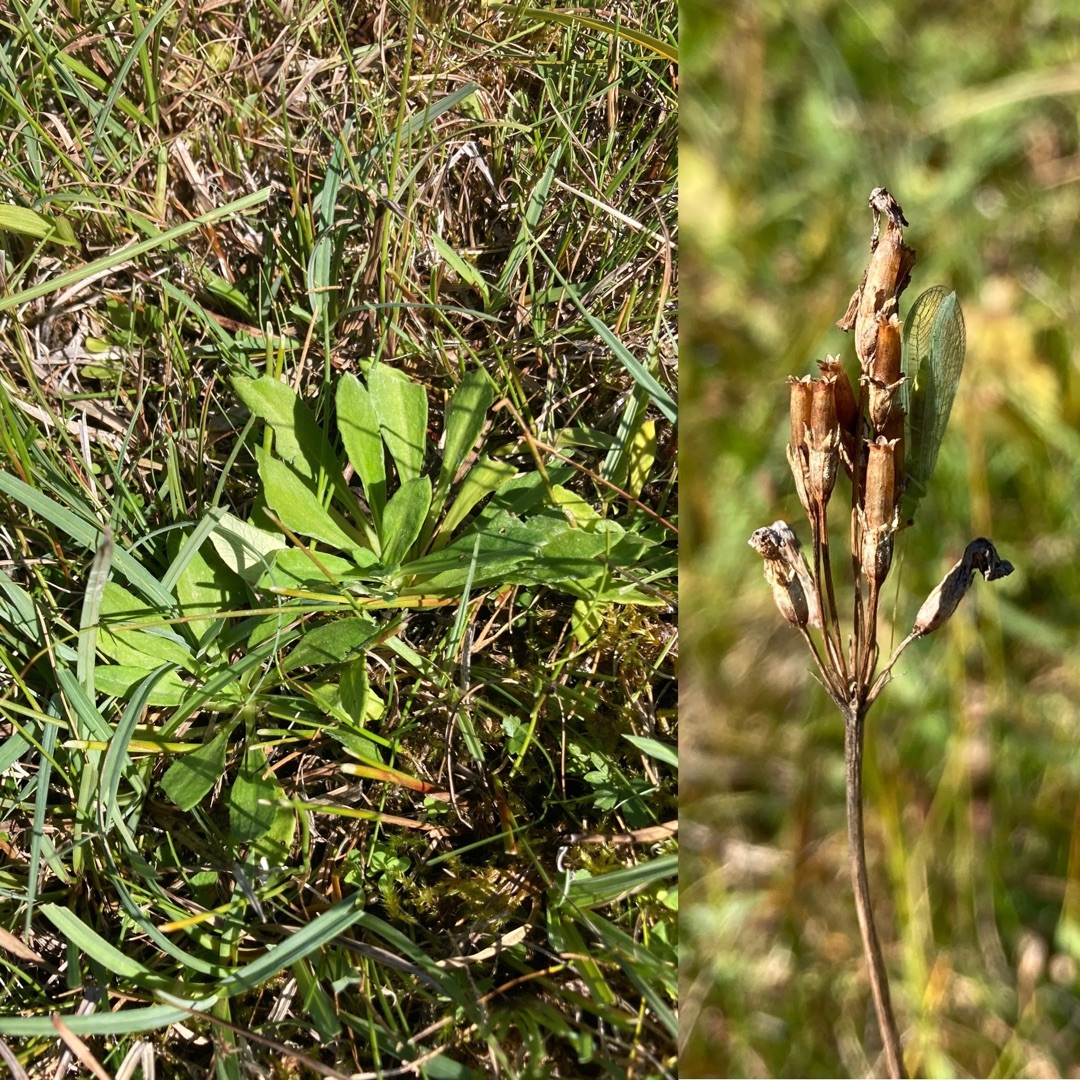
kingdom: Plantae
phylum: Tracheophyta
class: Magnoliopsida
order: Ericales
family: Primulaceae
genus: Primula
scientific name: Primula farinosa
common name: Melet kodriver
